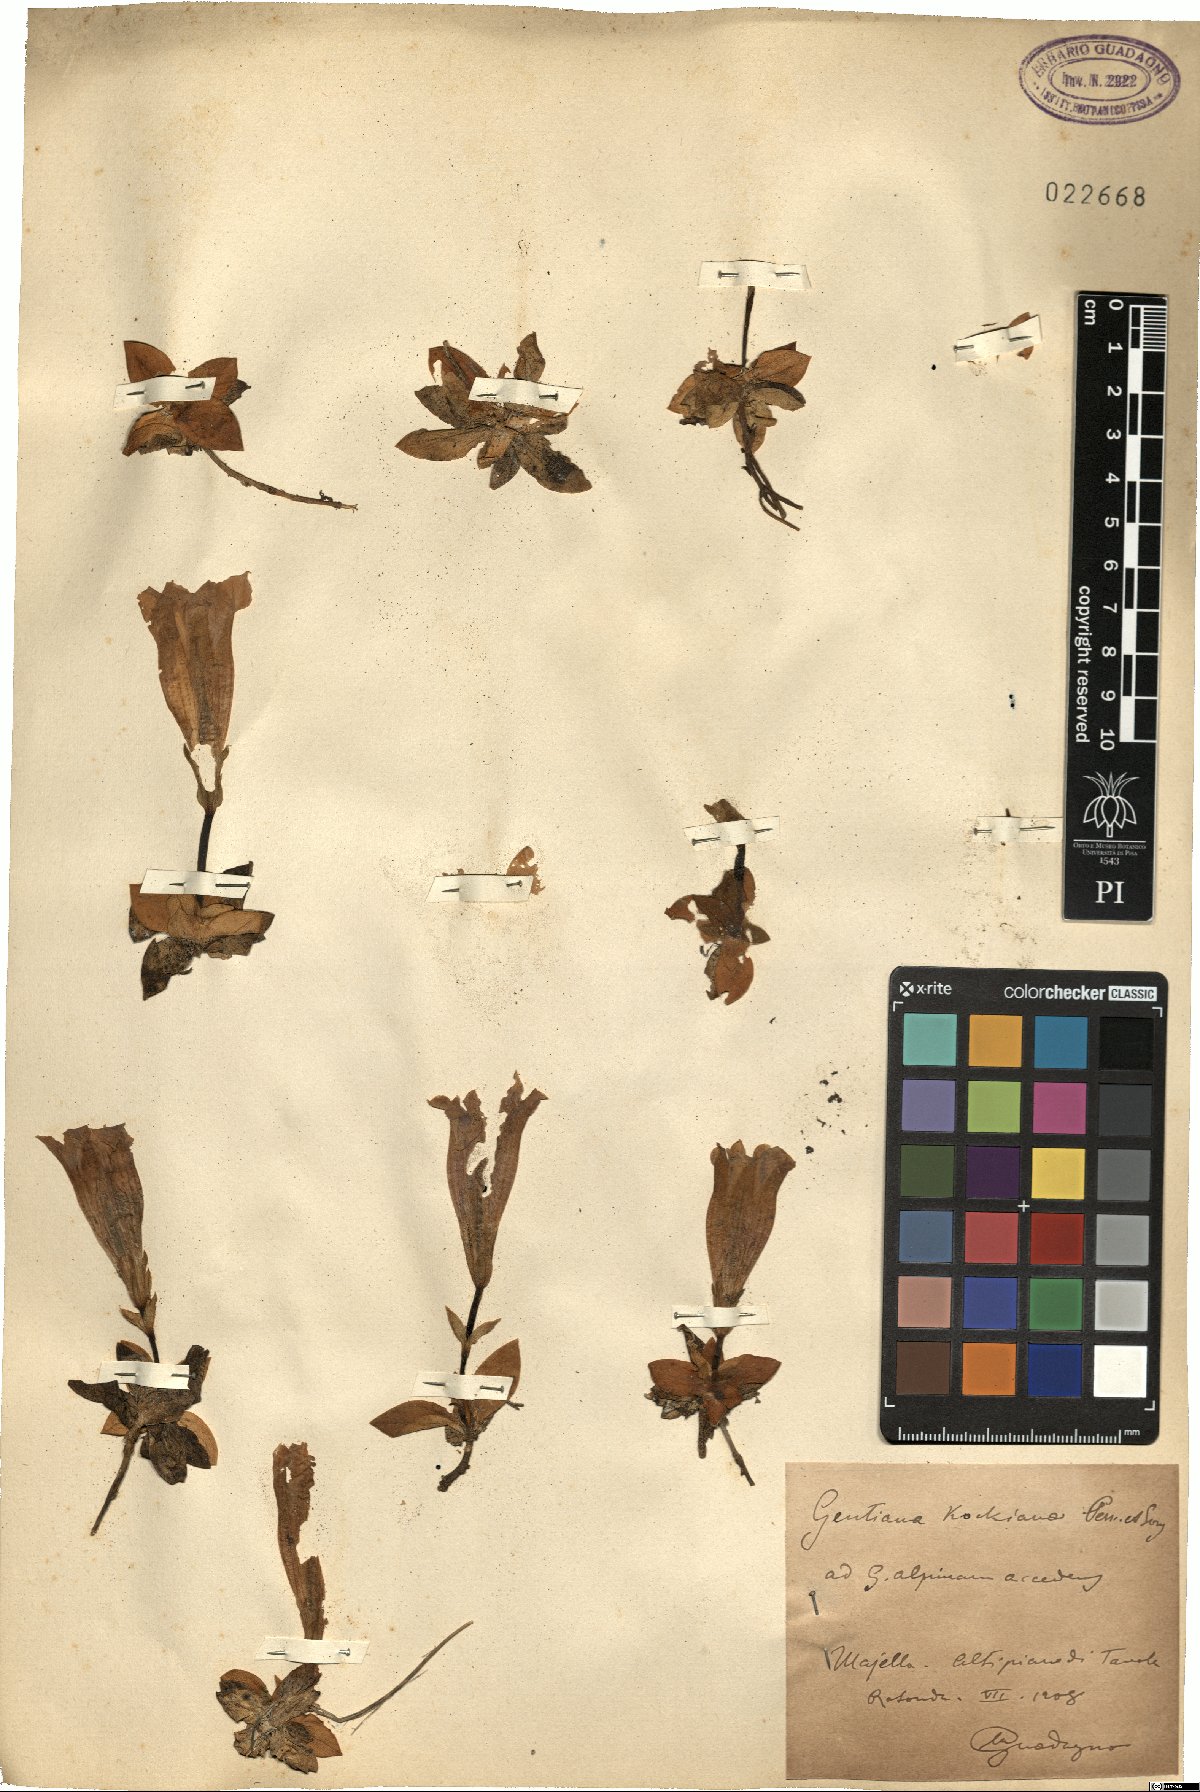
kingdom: Plantae
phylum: Tracheophyta
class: Magnoliopsida
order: Gentianales
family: Gentianaceae
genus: Gentiana
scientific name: Gentiana acaulis
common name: Trumpet gentian
